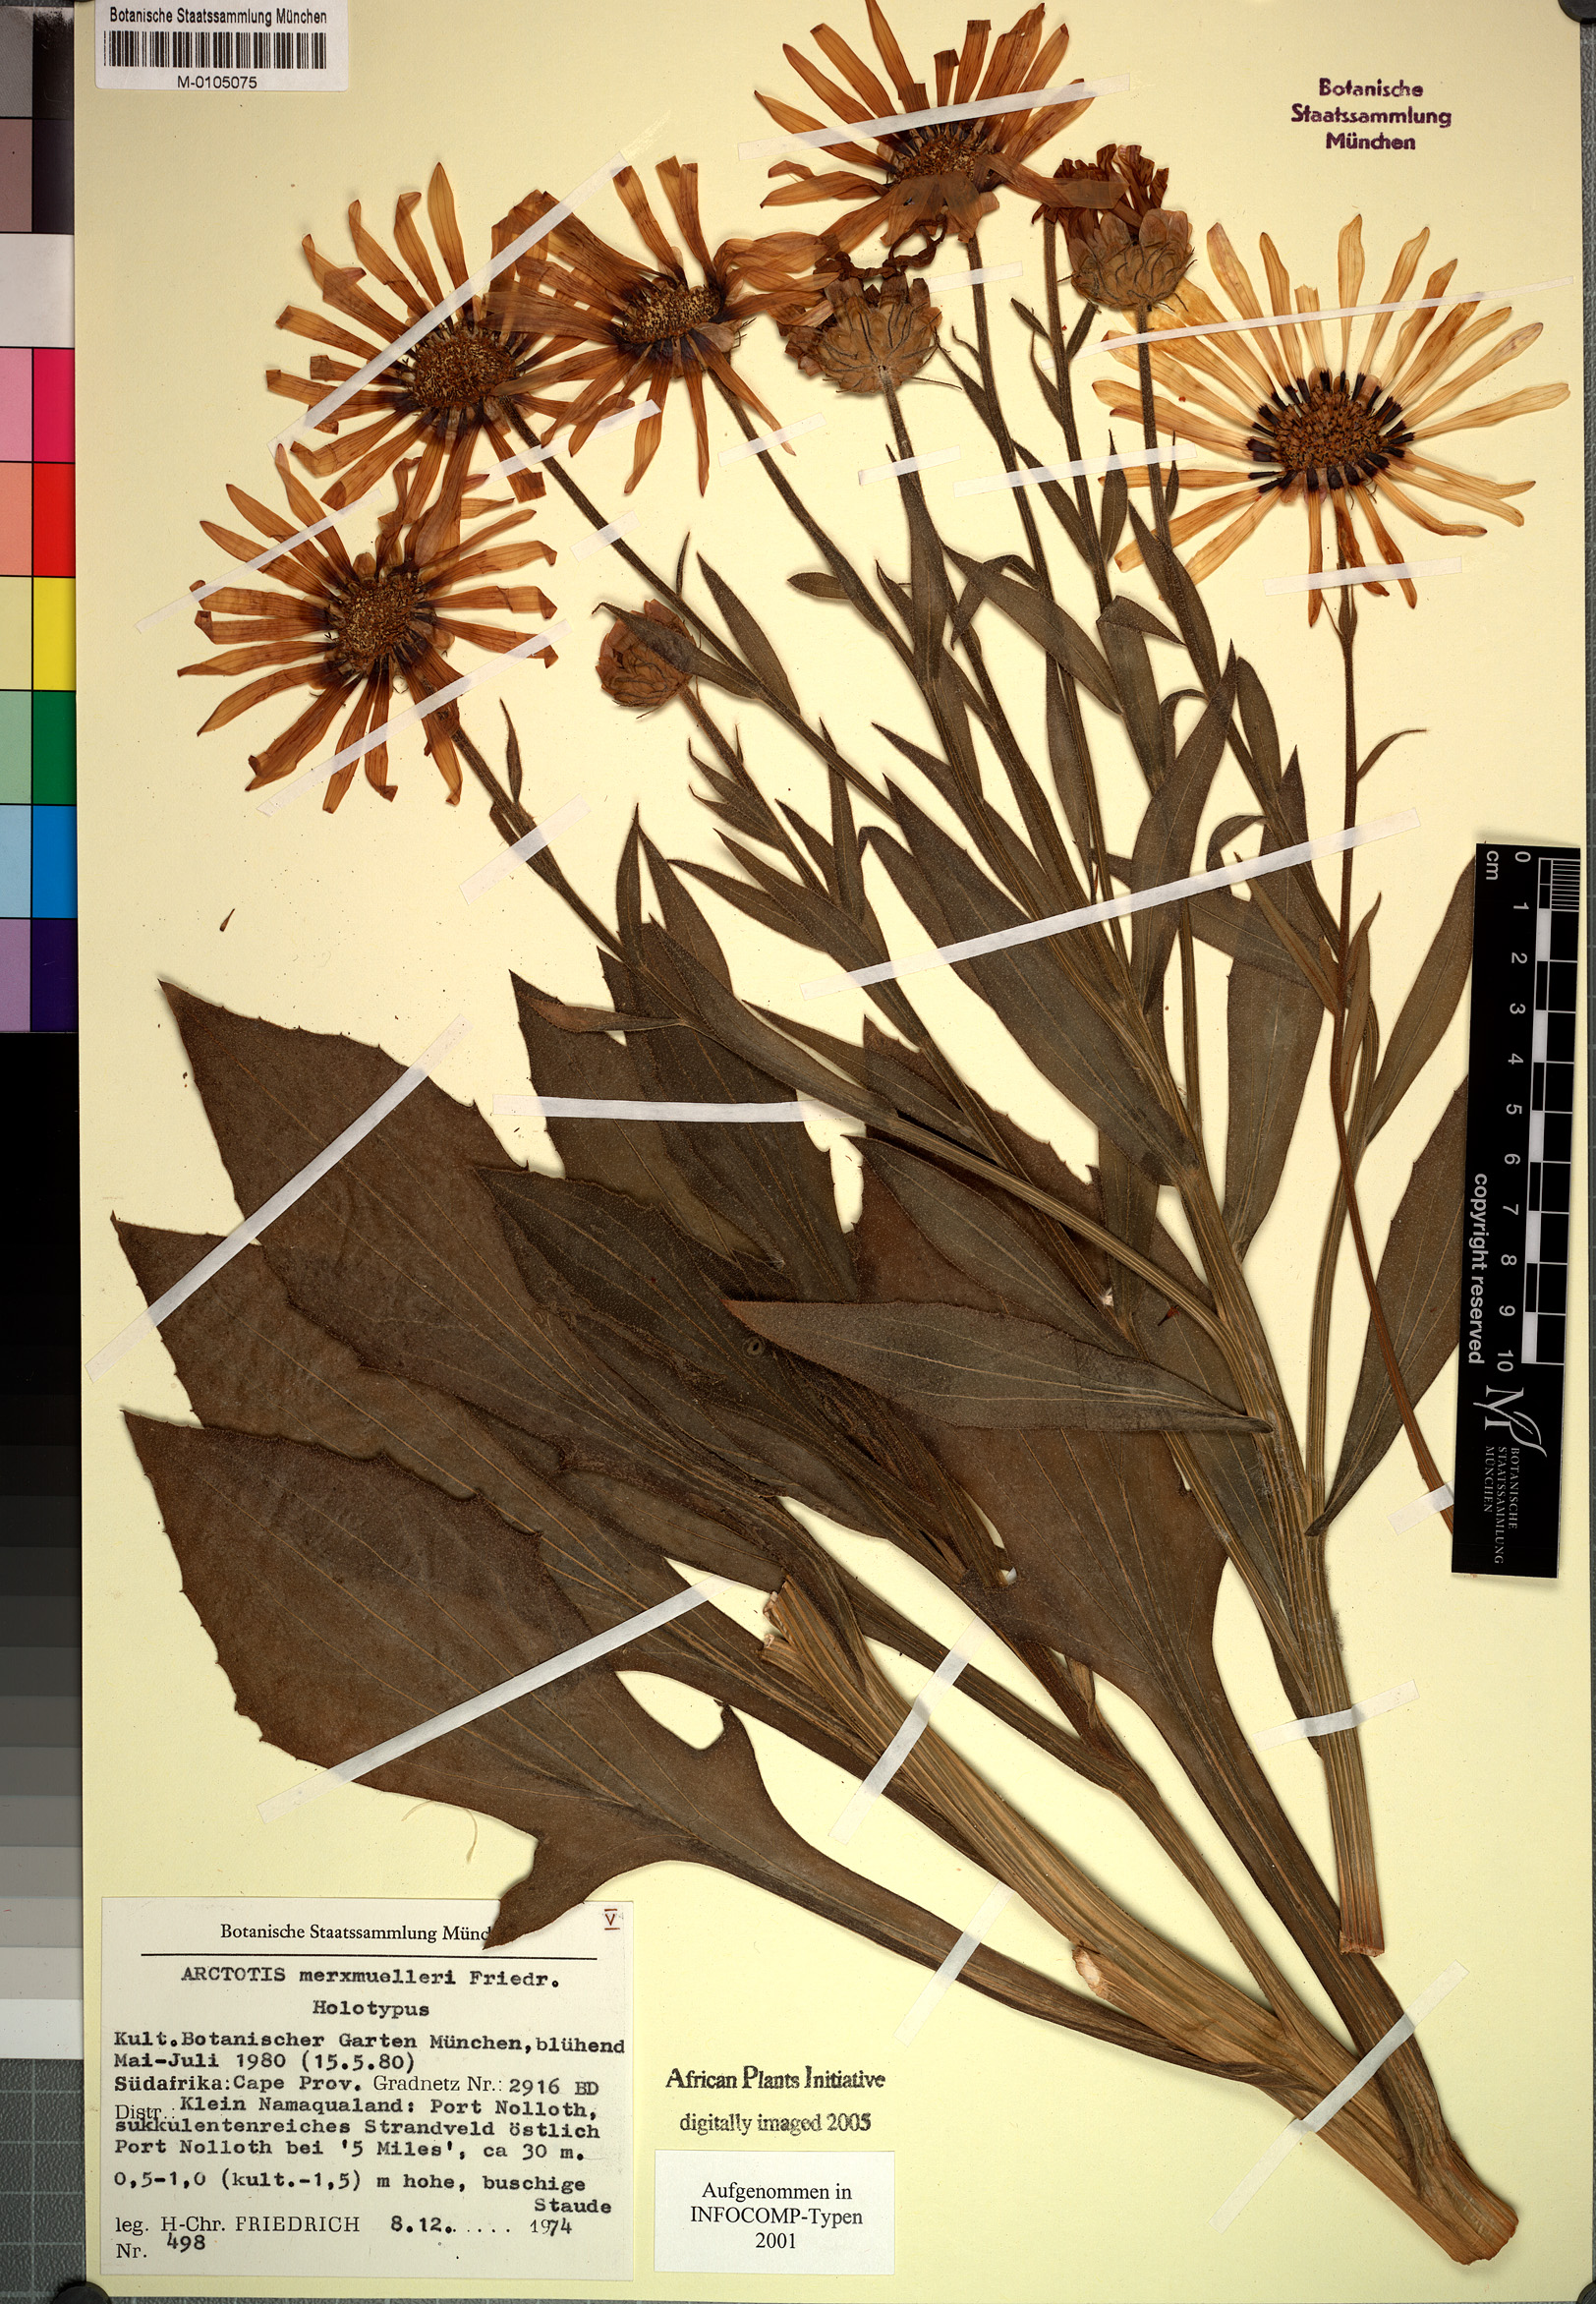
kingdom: Plantae
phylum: Tracheophyta
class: Magnoliopsida
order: Asterales
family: Asteraceae
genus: Arctotis
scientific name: Arctotis decurrens
